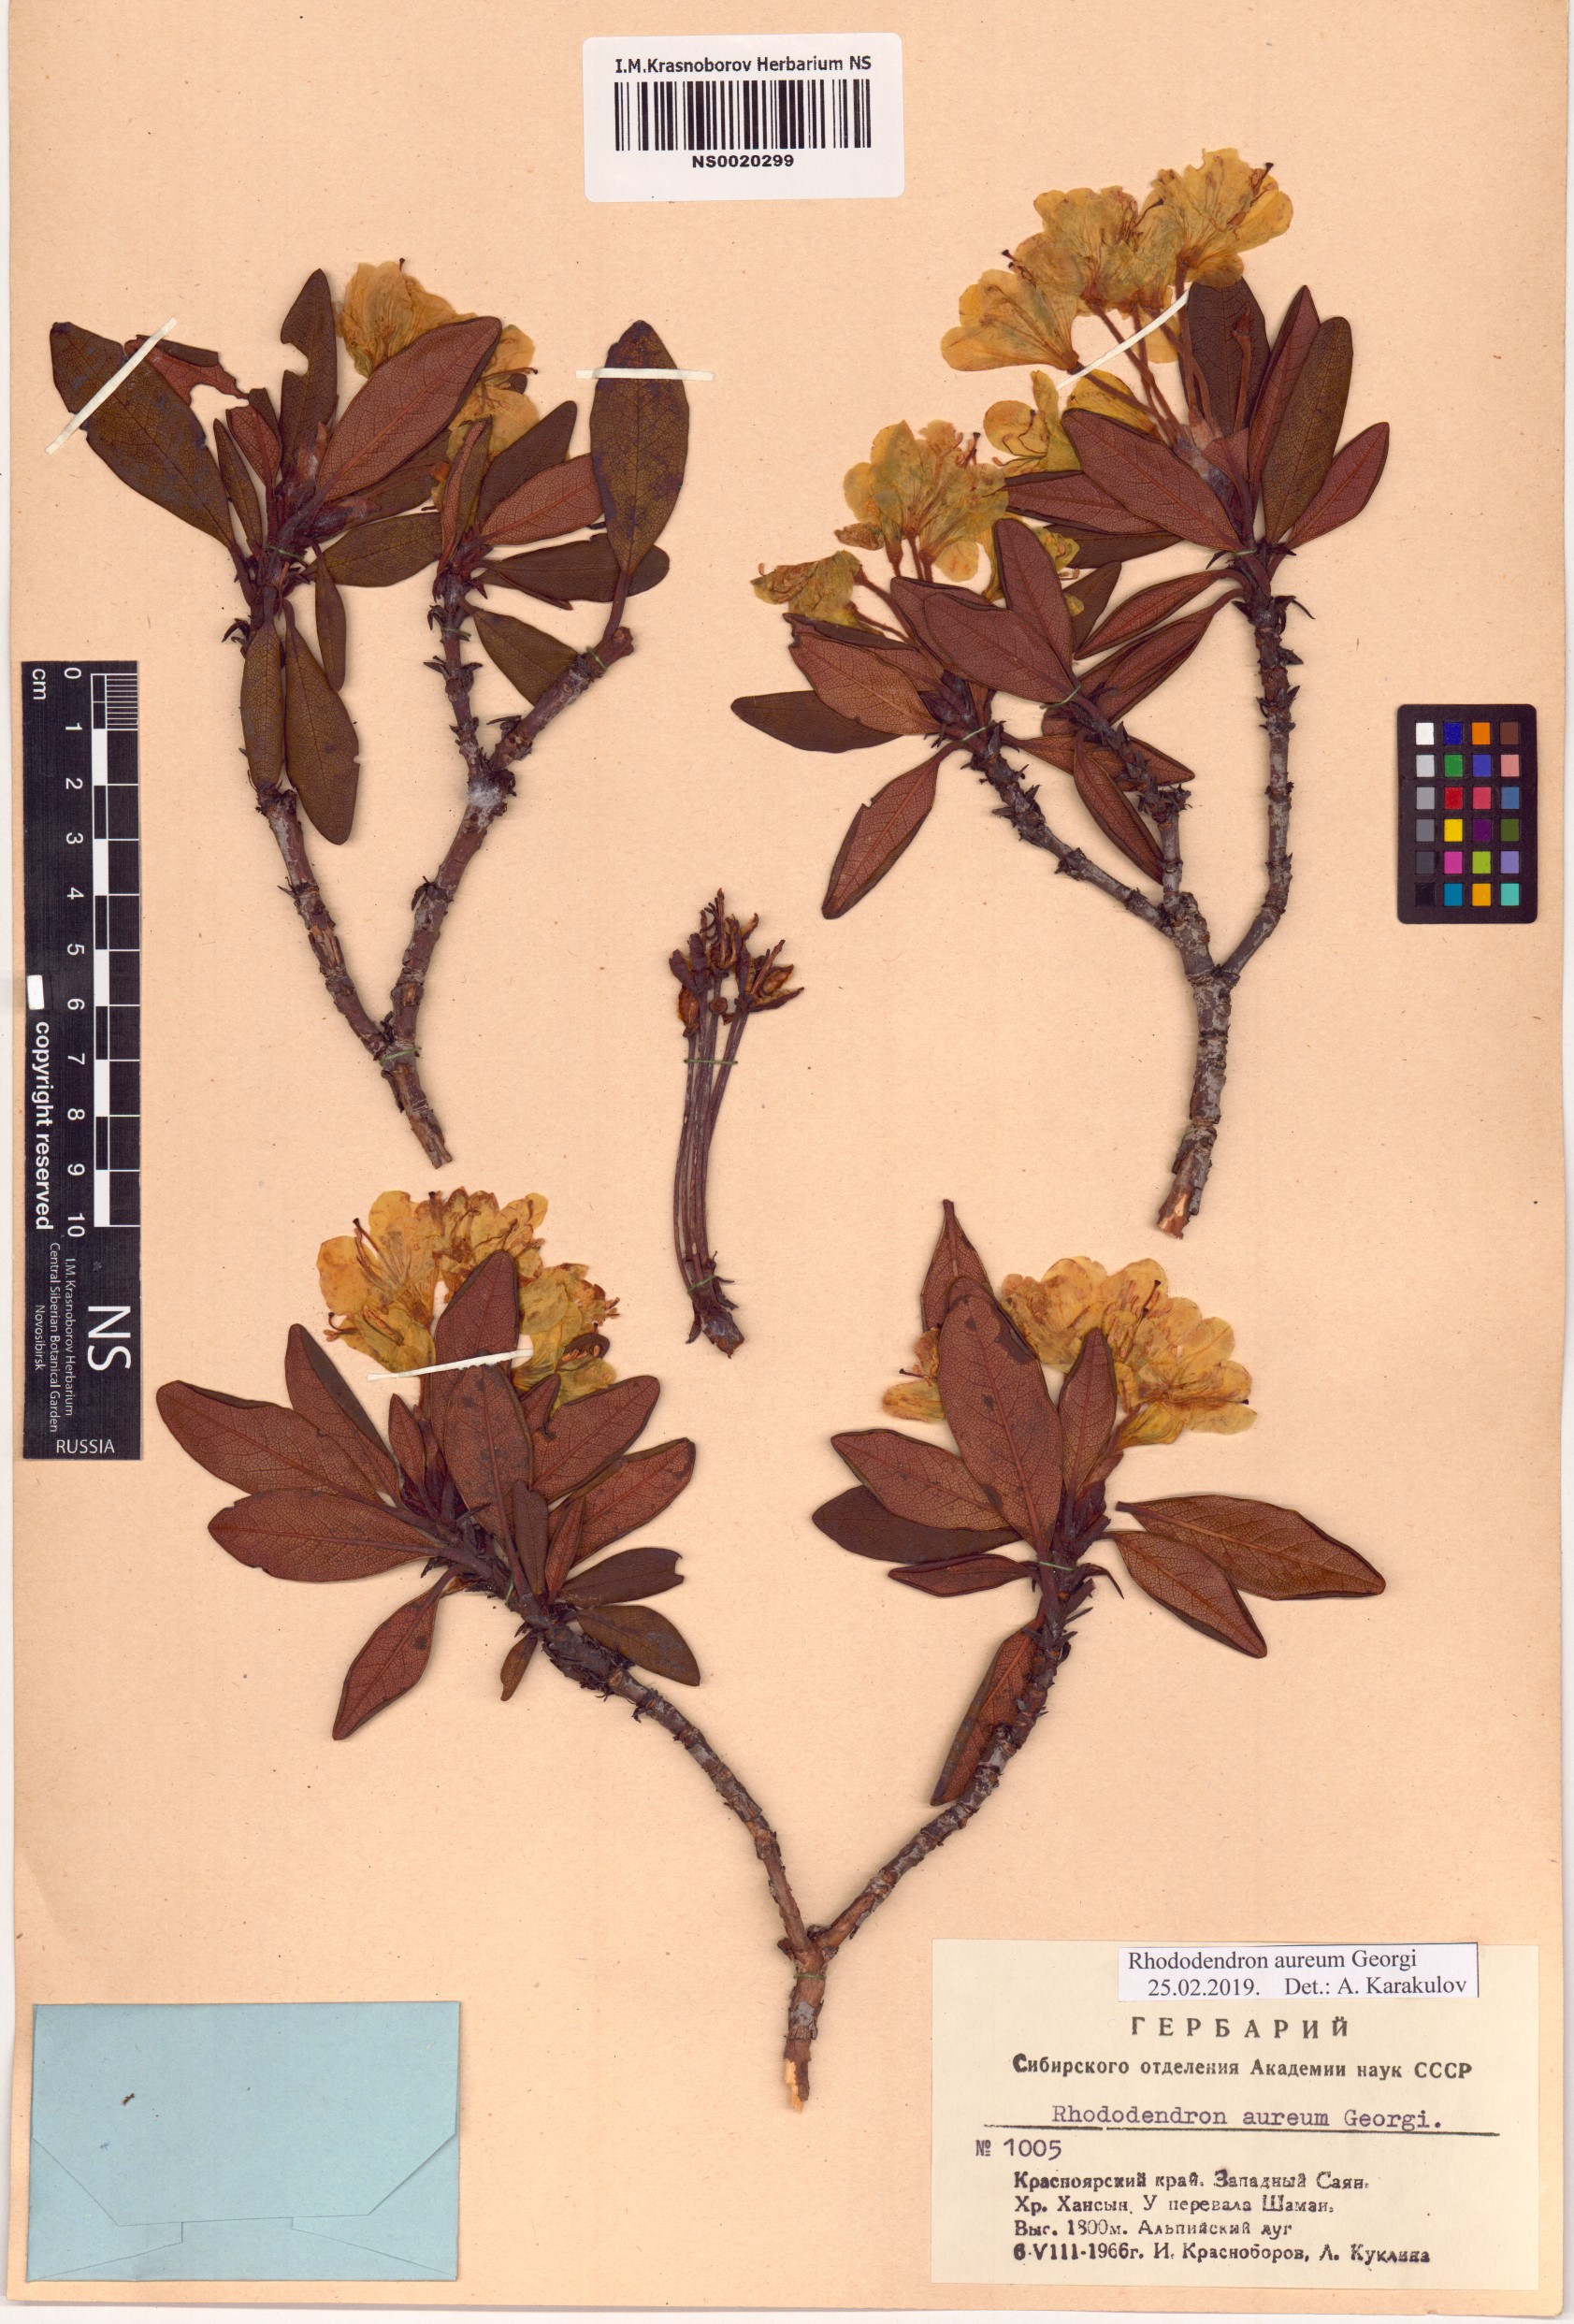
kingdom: Plantae
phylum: Tracheophyta
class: Magnoliopsida
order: Ericales
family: Ericaceae
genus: Rhododendron
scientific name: Rhododendron aureum
